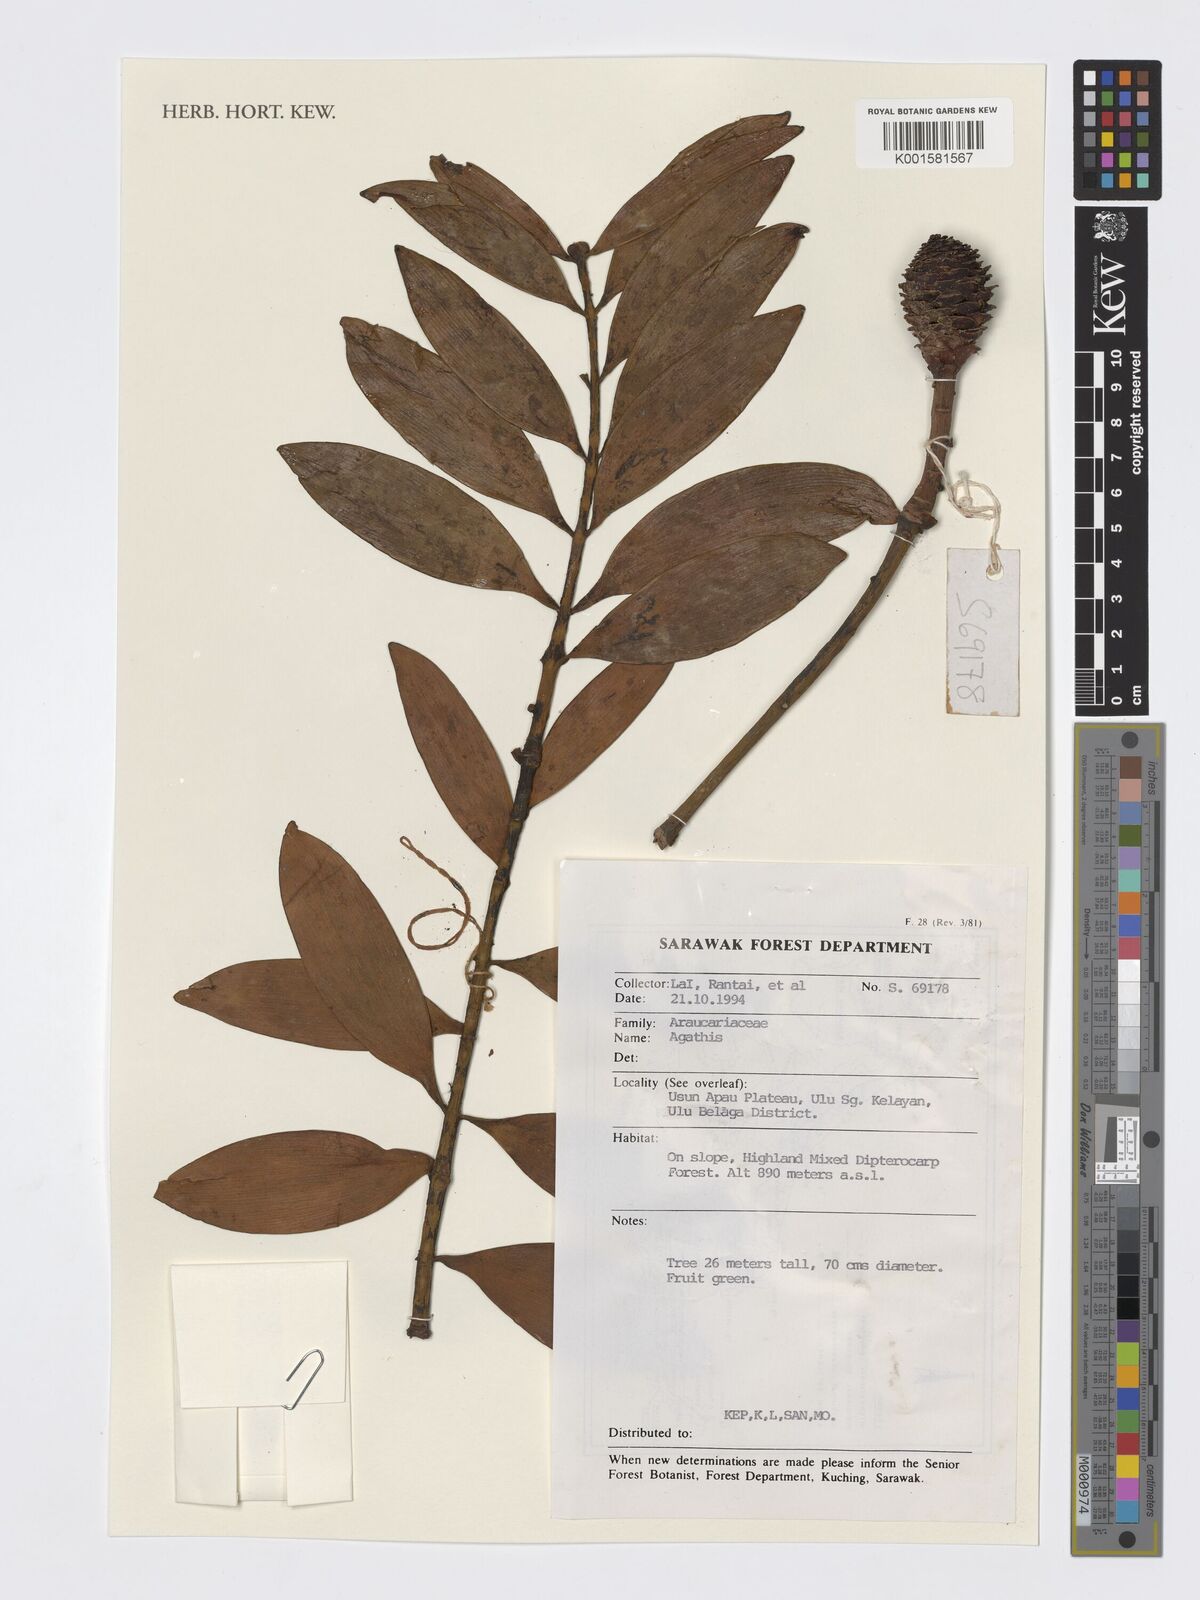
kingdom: Plantae
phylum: Tracheophyta
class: Pinopsida
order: Pinales
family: Araucariaceae
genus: Agathis
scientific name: Agathis
